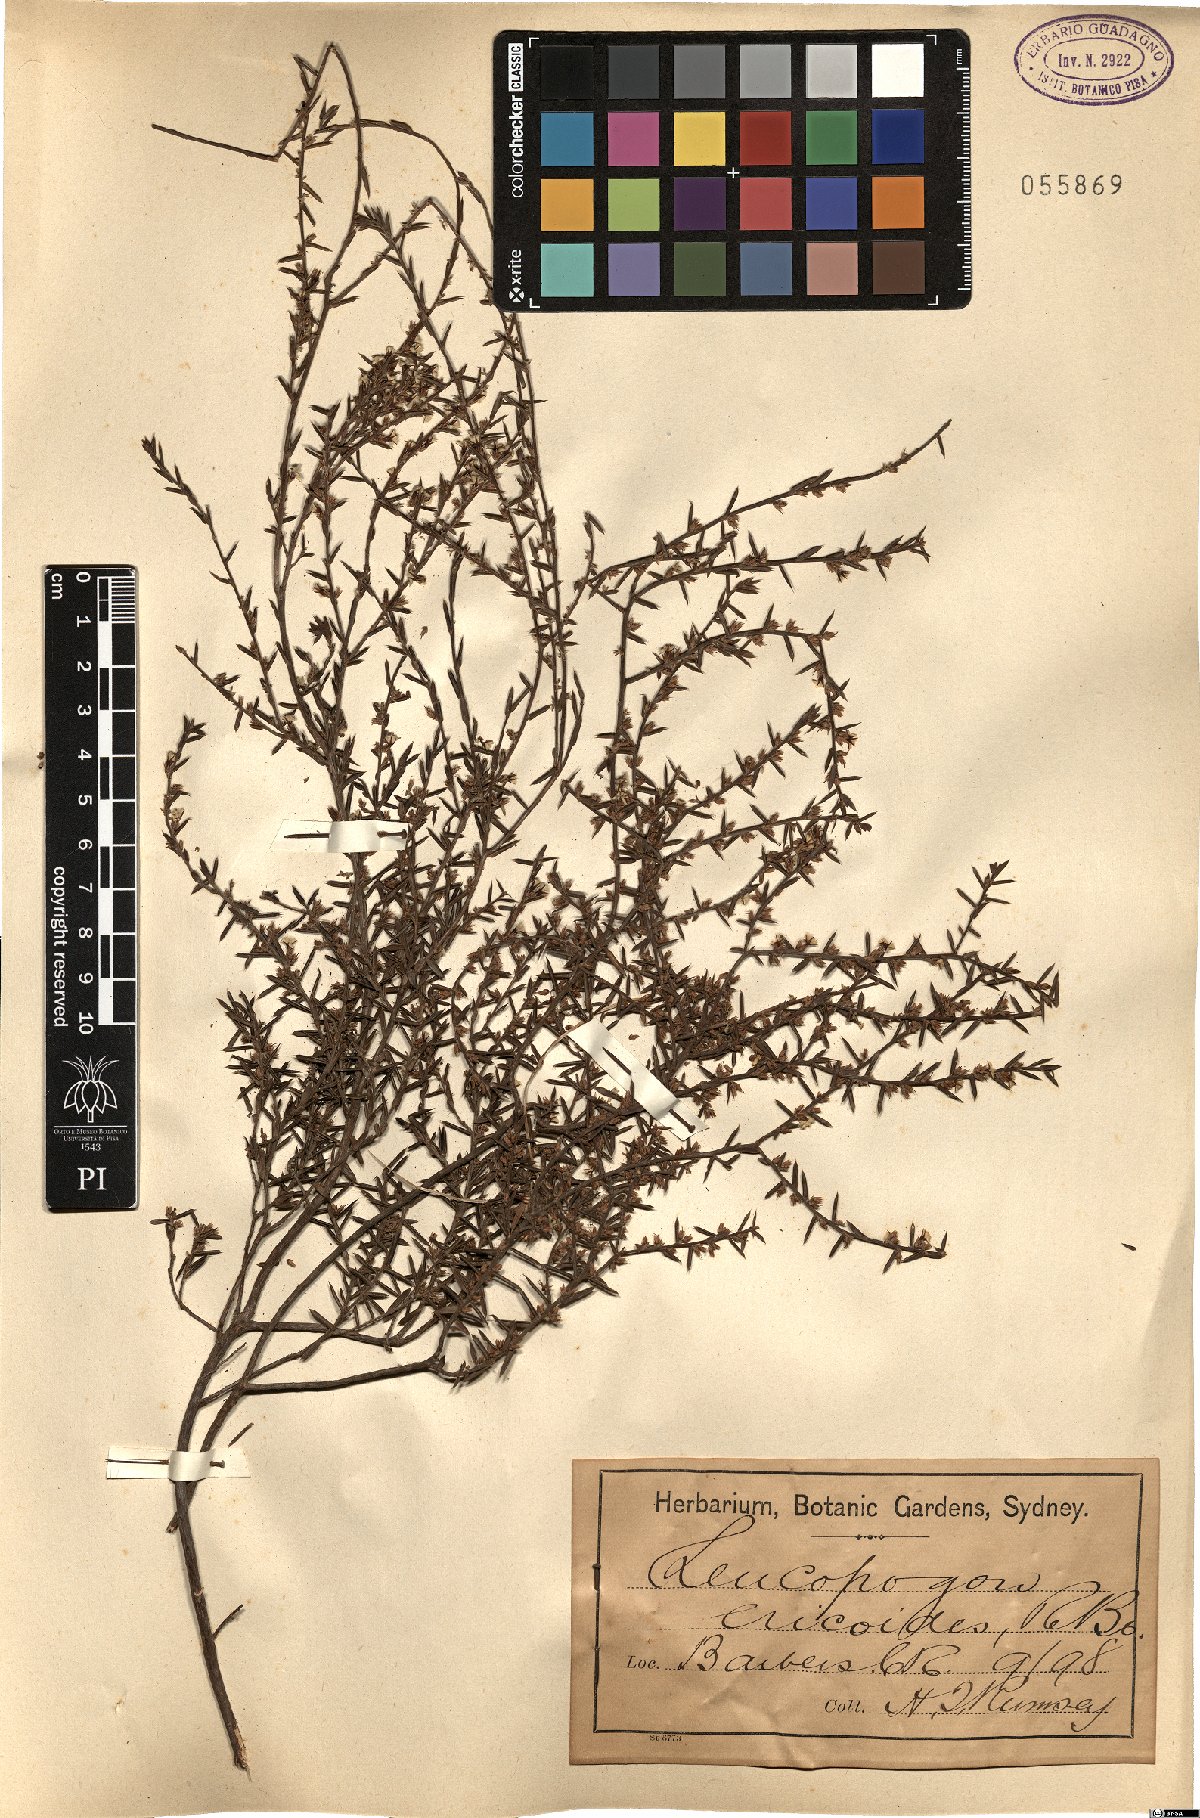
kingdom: Plantae
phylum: Tracheophyta
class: Magnoliopsida
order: Ericales
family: Ericaceae
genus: Styphelia
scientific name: Styphelia ericoides
